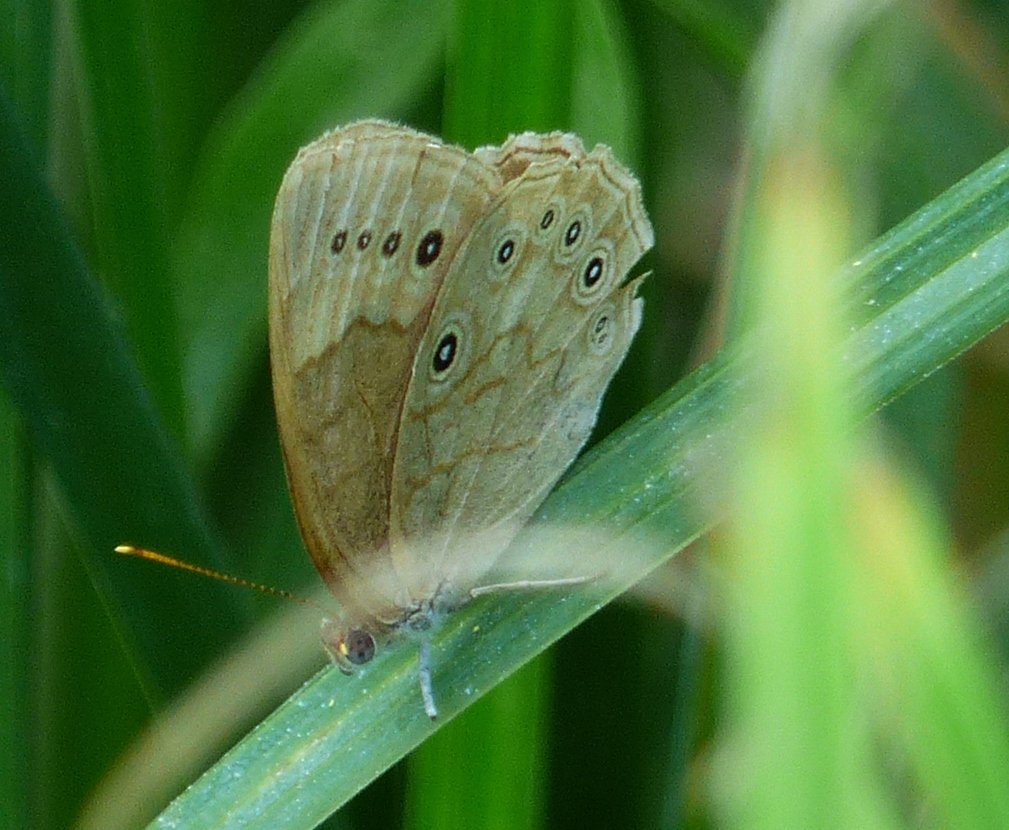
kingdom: Animalia
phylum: Arthropoda
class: Insecta
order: Lepidoptera
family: Nymphalidae
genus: Lethe
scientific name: Lethe eurydice
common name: Eyed Brown
